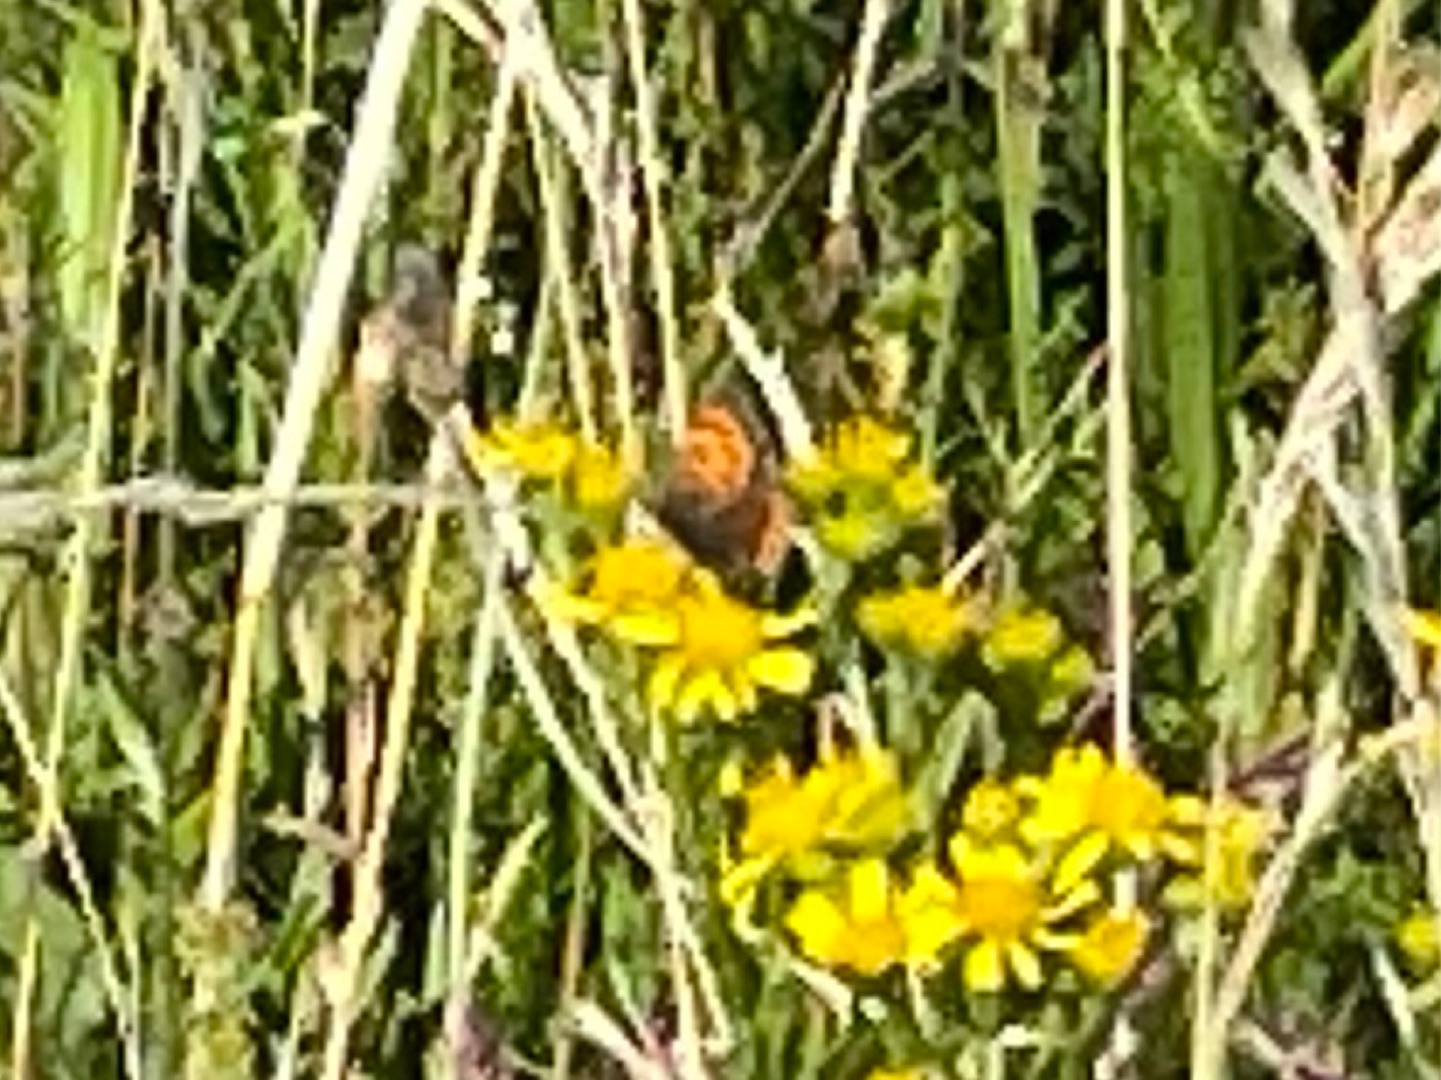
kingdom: Animalia
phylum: Arthropoda
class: Insecta
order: Lepidoptera
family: Lycaenidae
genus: Lycaena
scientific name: Lycaena phlaeas
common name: Lille ildfugl
